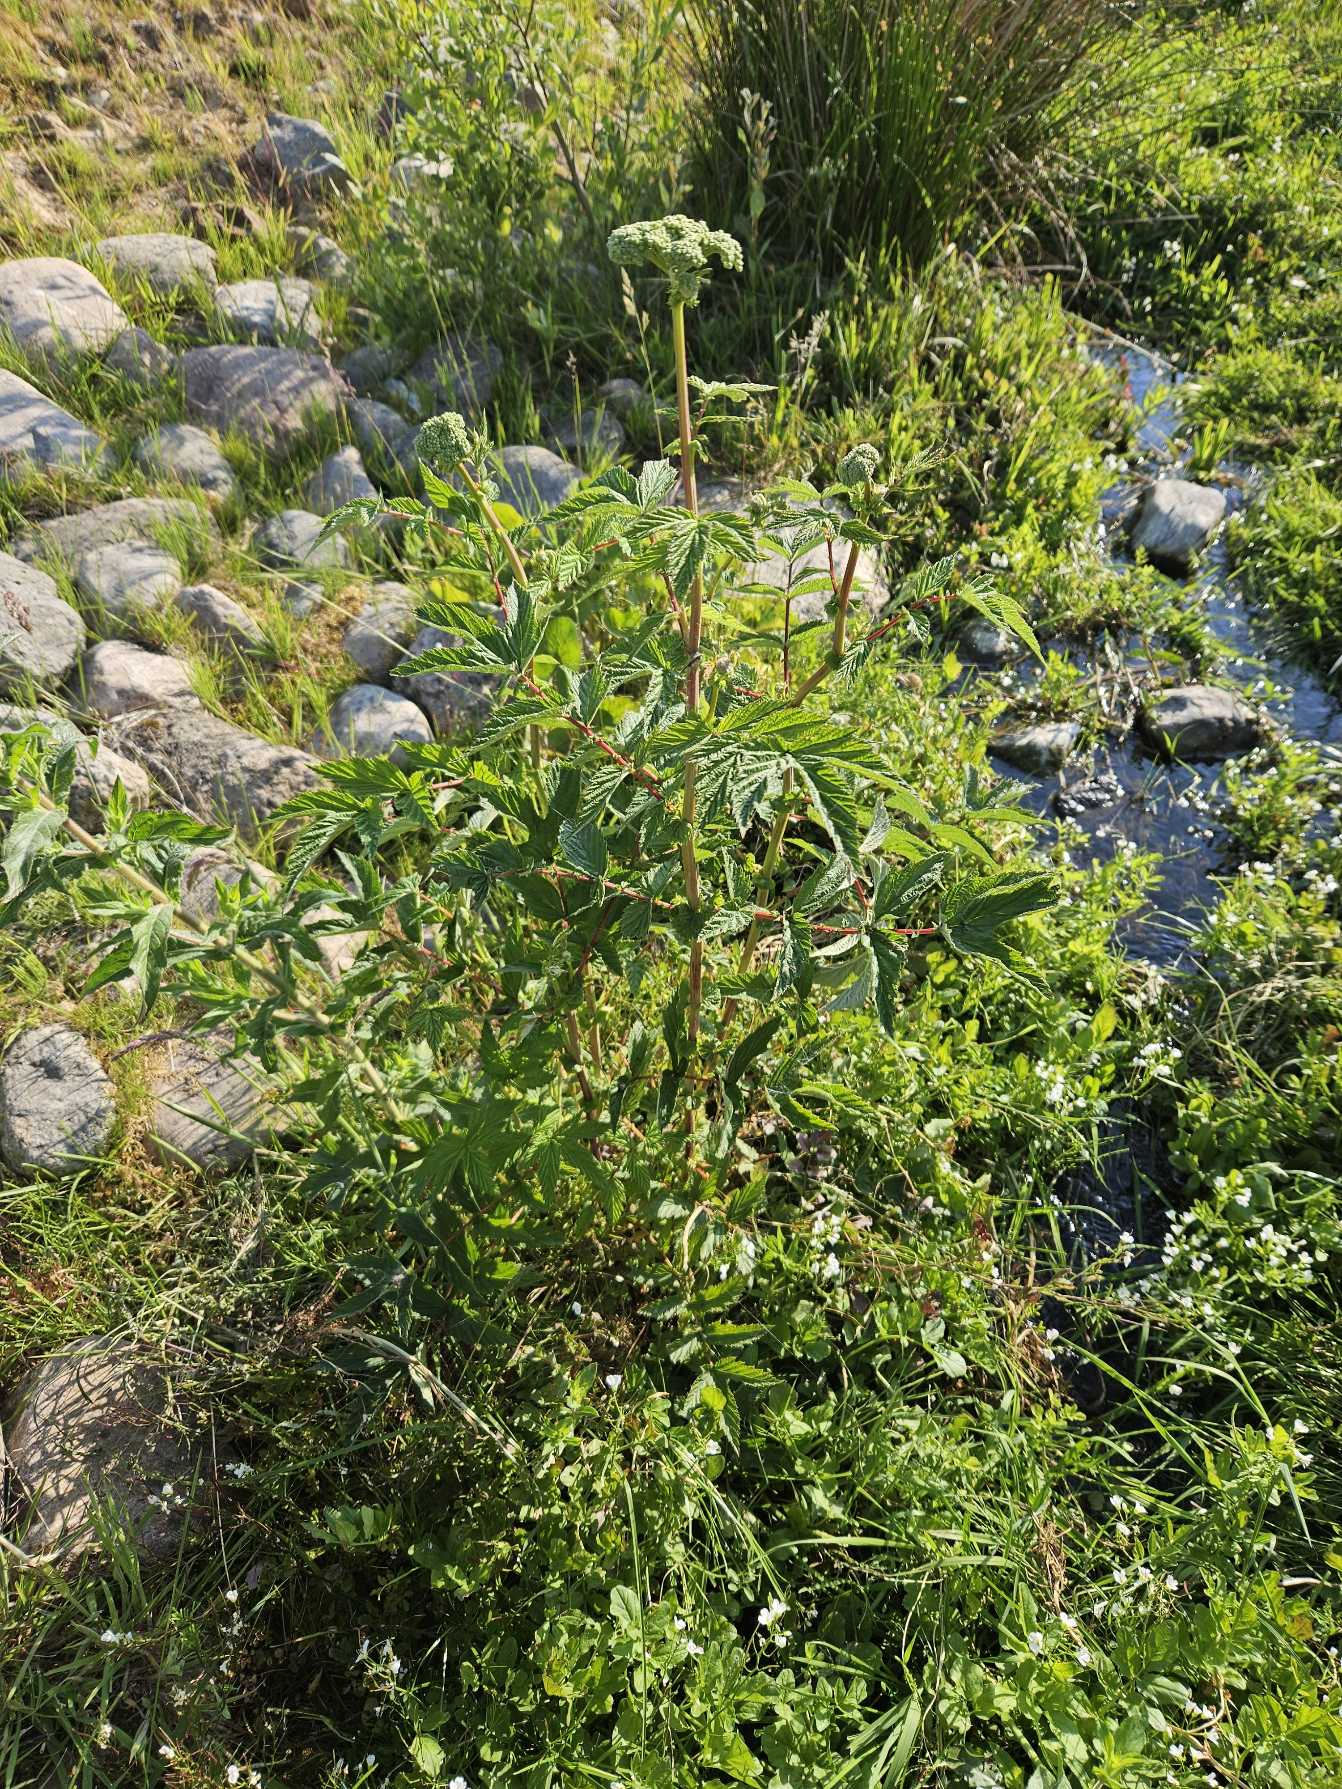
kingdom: Plantae
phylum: Tracheophyta
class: Magnoliopsida
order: Rosales
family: Rosaceae
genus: Filipendula
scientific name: Filipendula ulmaria
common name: Almindelig mjødurt
